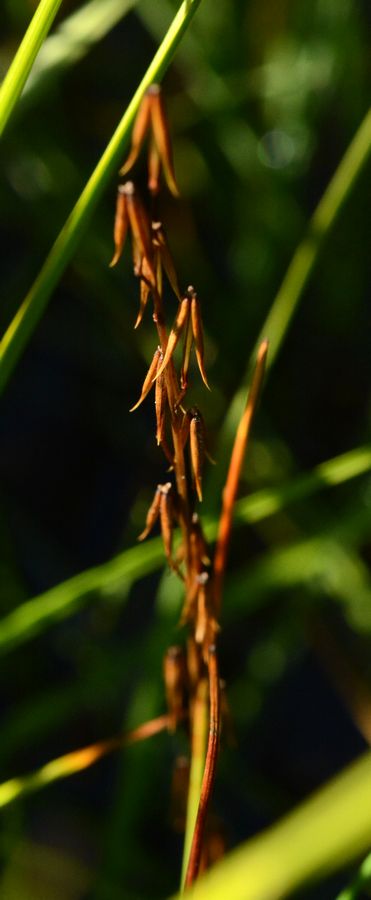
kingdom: Plantae
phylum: Tracheophyta
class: Liliopsida
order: Alismatales
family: Juncaginaceae
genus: Triglochin
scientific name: Triglochin palustris
